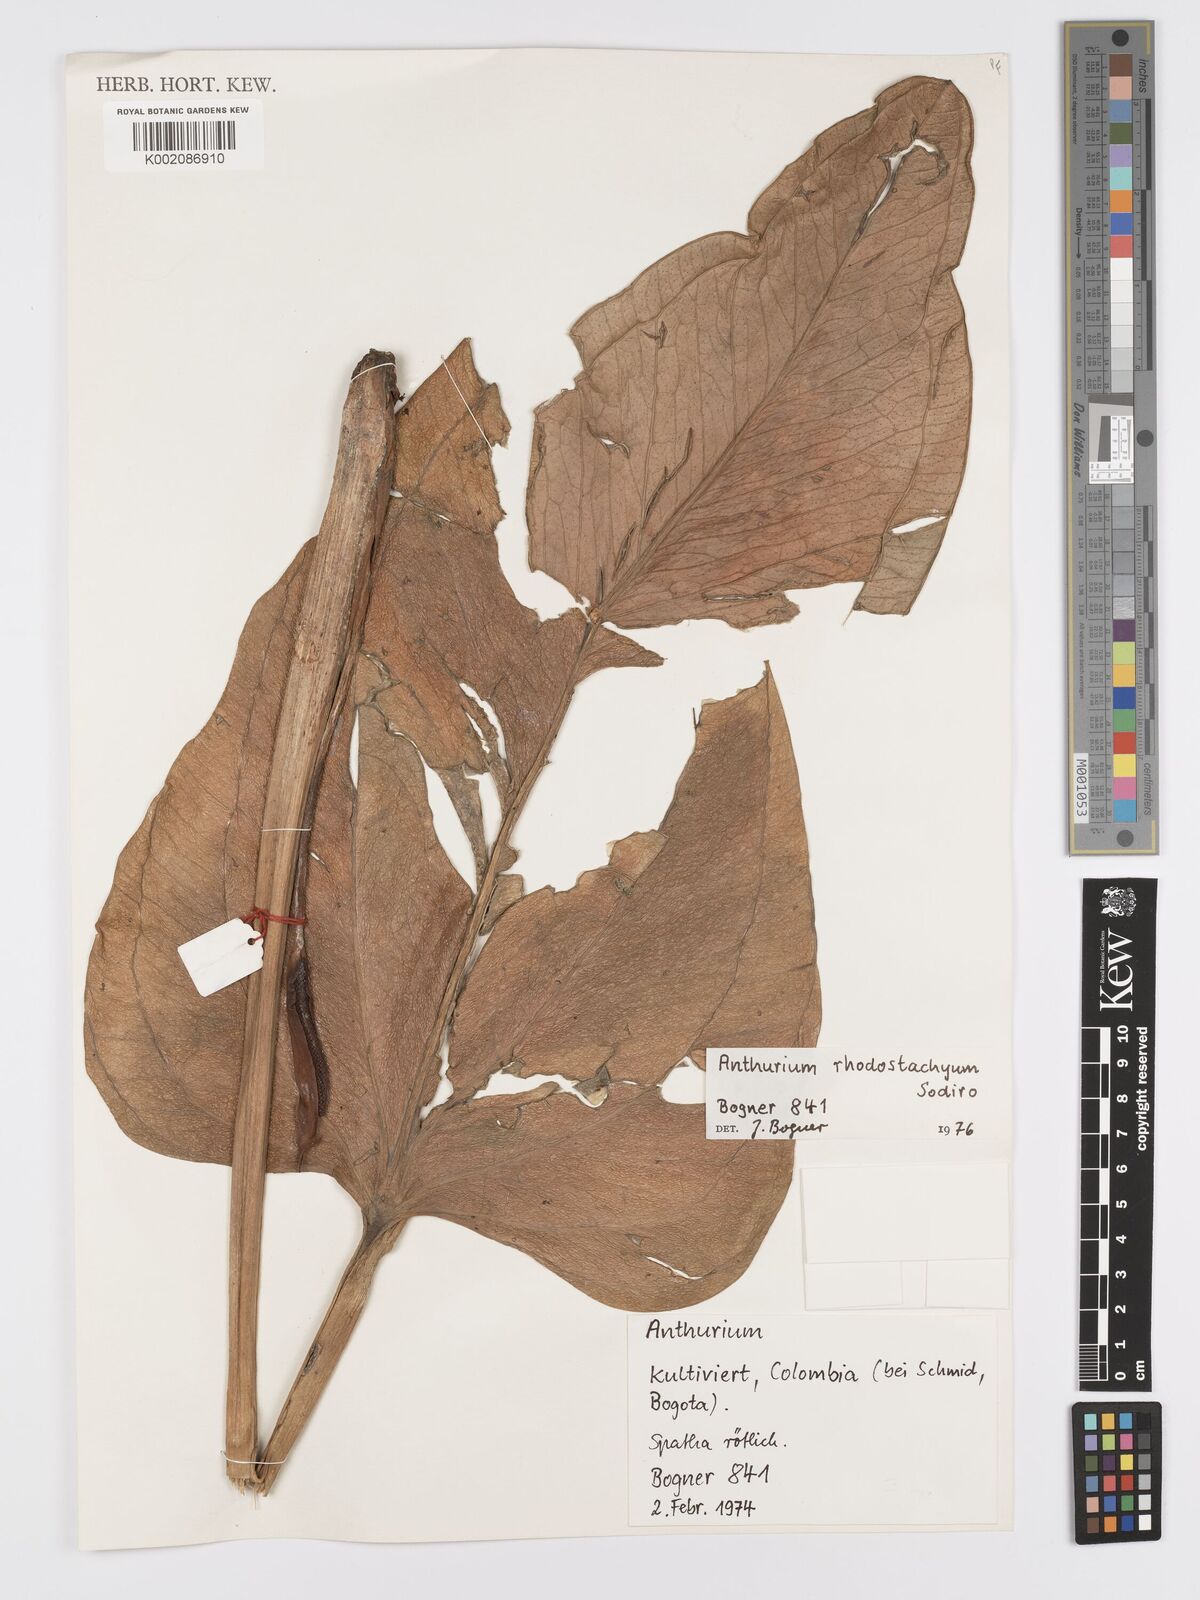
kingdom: Plantae
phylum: Tracheophyta
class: Liliopsida
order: Alismatales
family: Araceae
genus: Anthurium
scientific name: Anthurium ovatifolium
